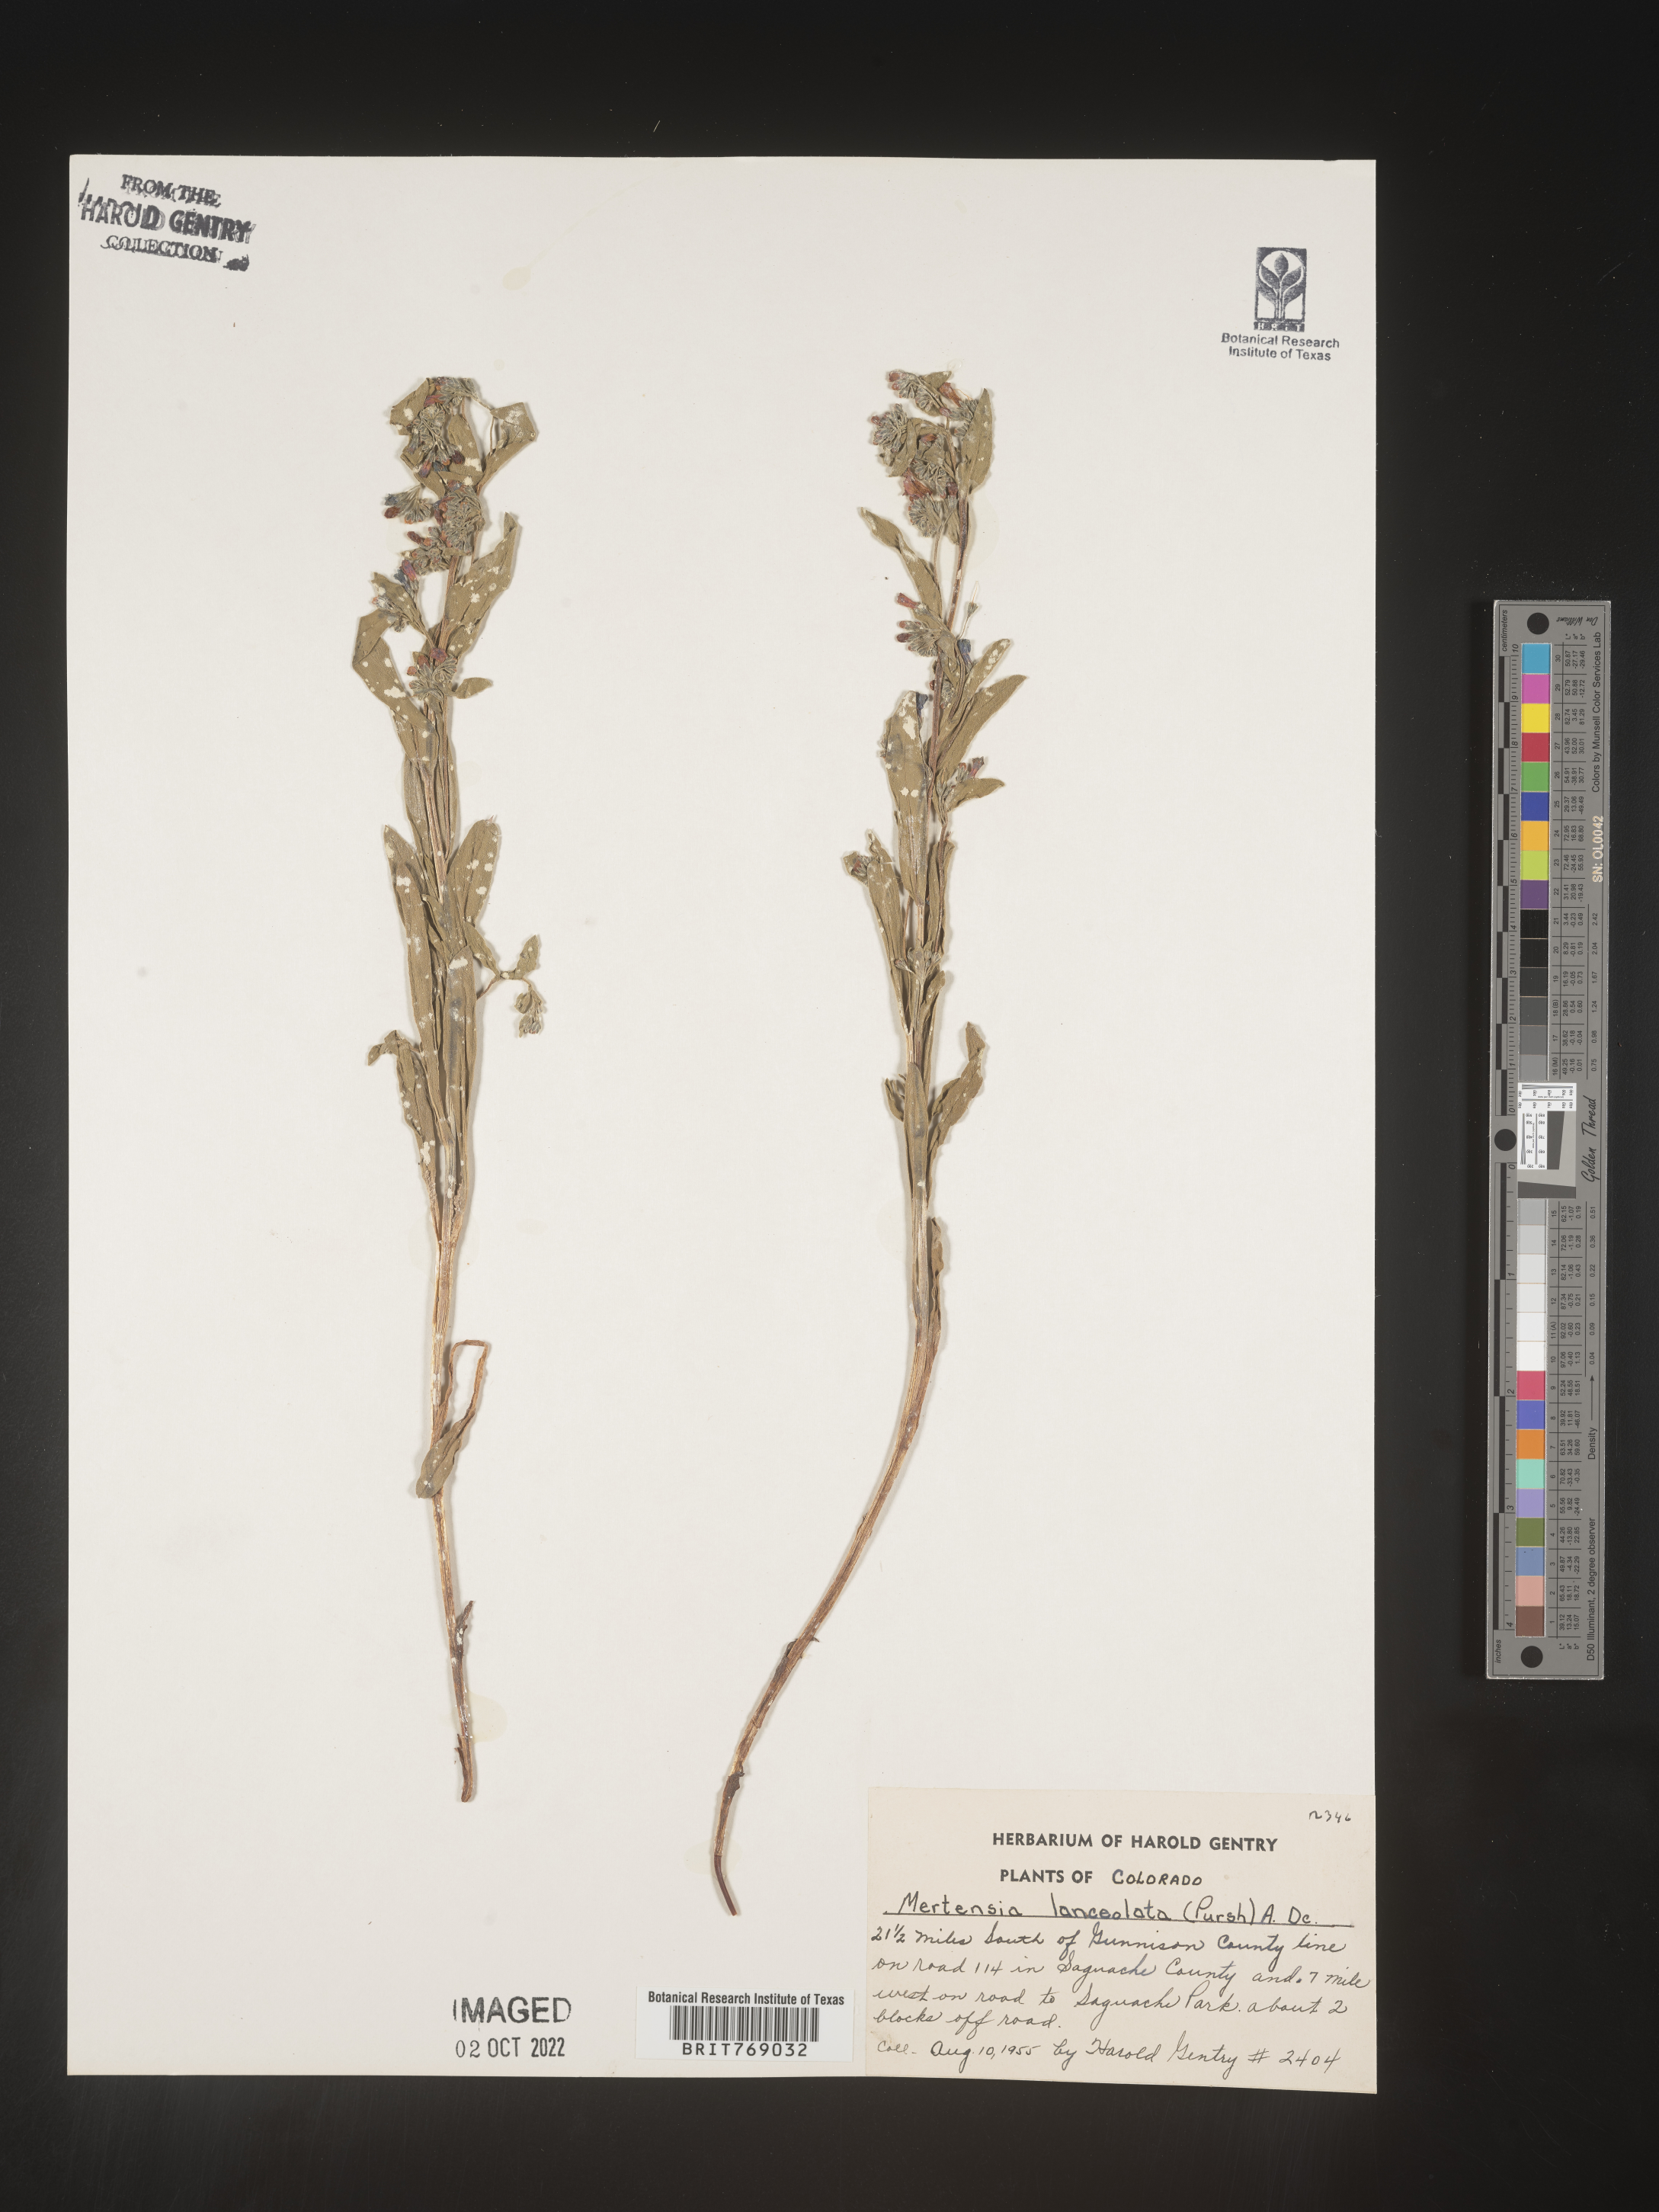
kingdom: Plantae
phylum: Tracheophyta
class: Magnoliopsida
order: Boraginales
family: Boraginaceae
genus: Mertensia
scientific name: Mertensia
